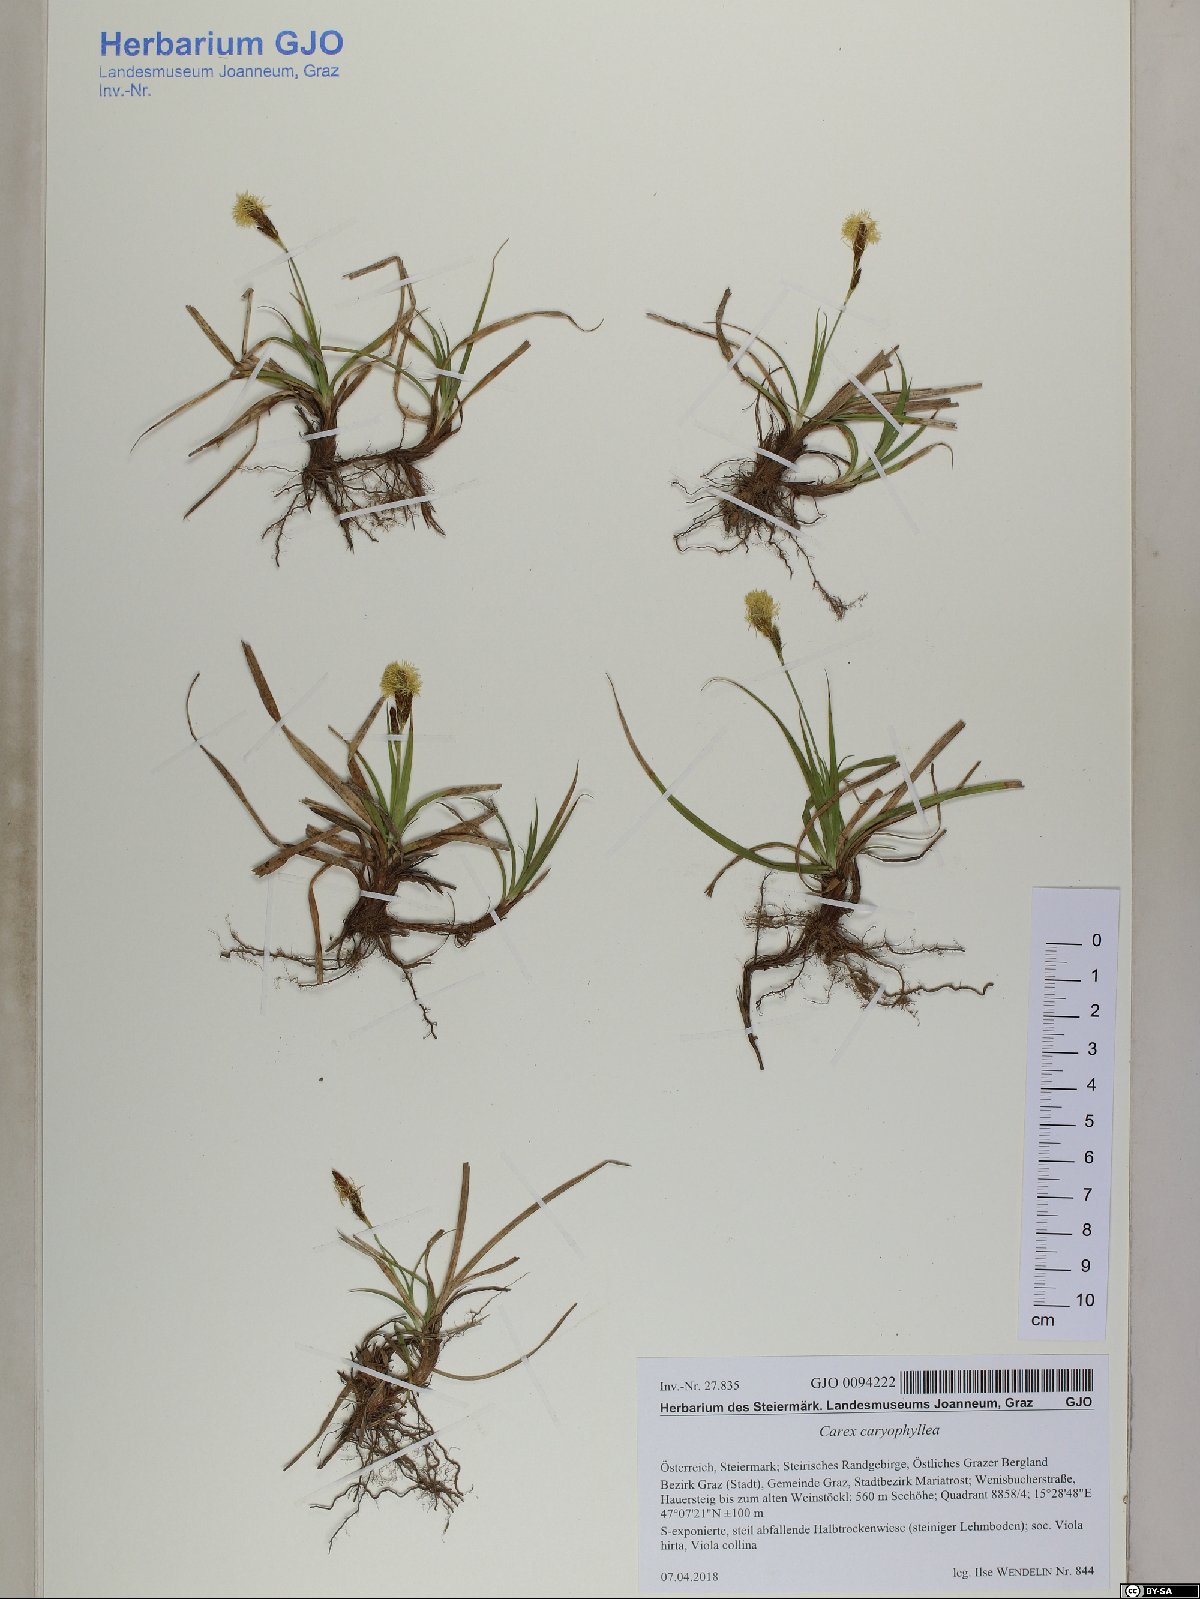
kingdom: Plantae
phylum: Tracheophyta
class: Liliopsida
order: Poales
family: Cyperaceae
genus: Carex
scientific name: Carex caryophyllea
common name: Spring sedge
